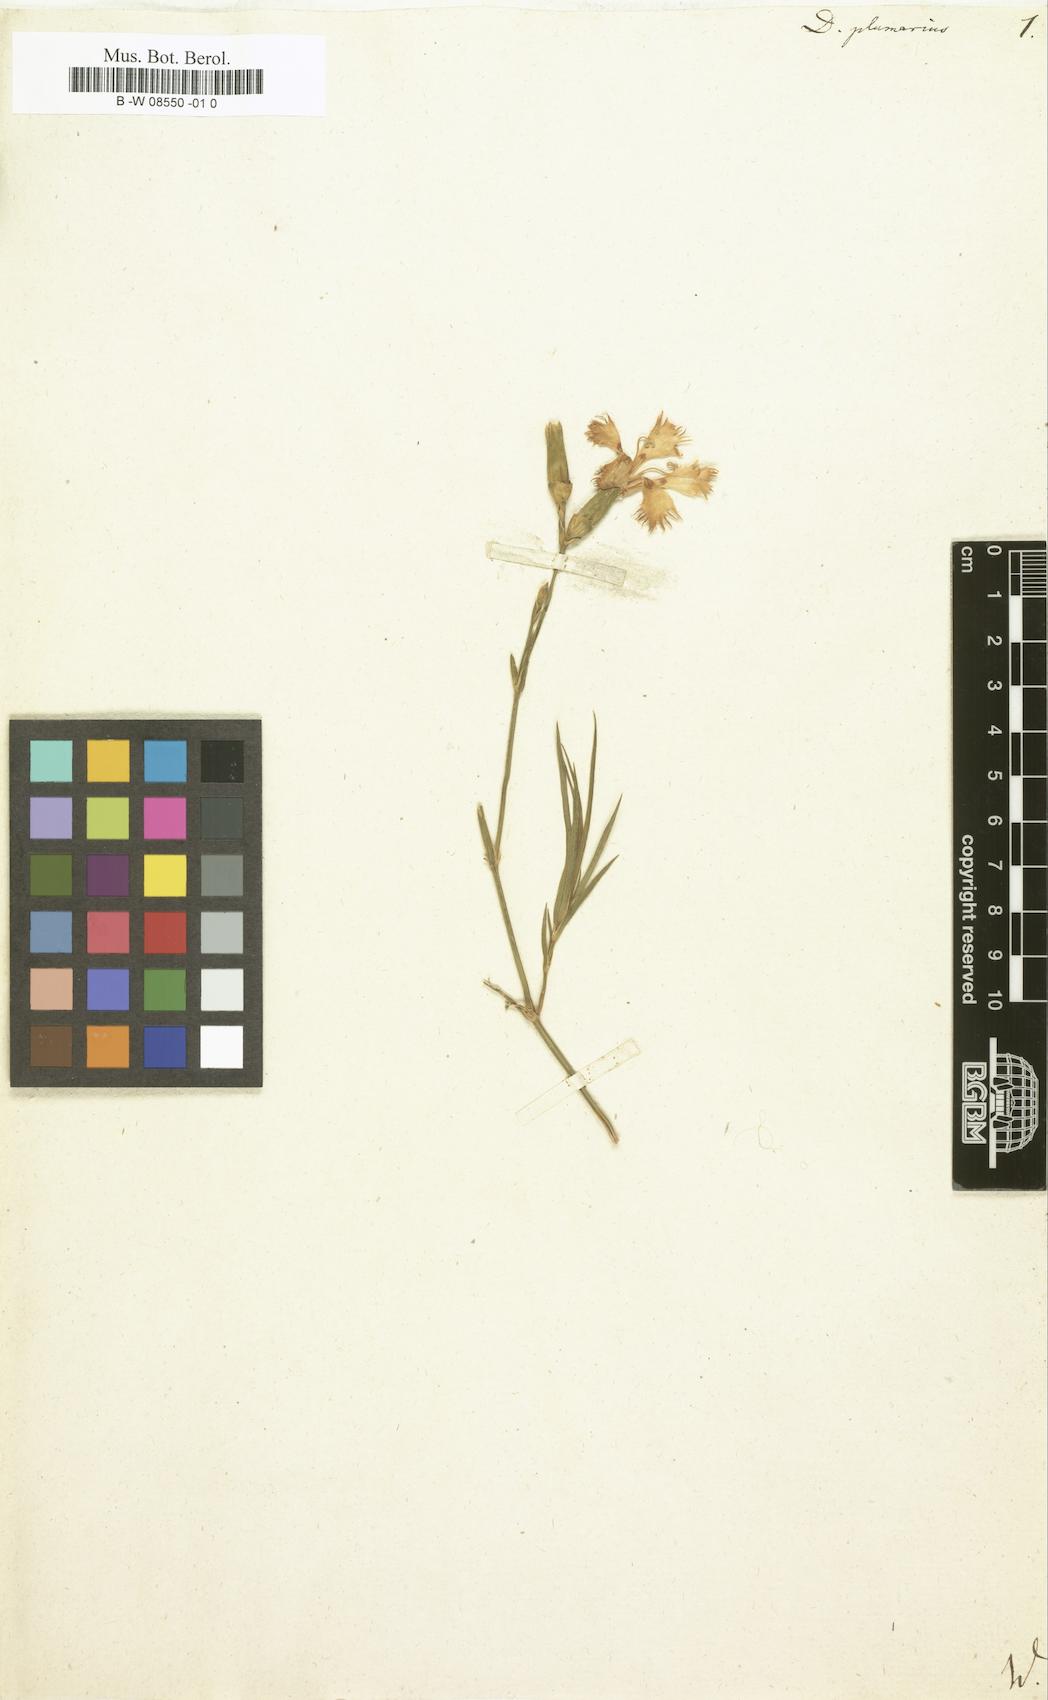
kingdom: Plantae
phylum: Tracheophyta
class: Magnoliopsida
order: Caryophyllales
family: Caryophyllaceae
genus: Dianthus
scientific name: Dianthus plumarius
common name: Pink
